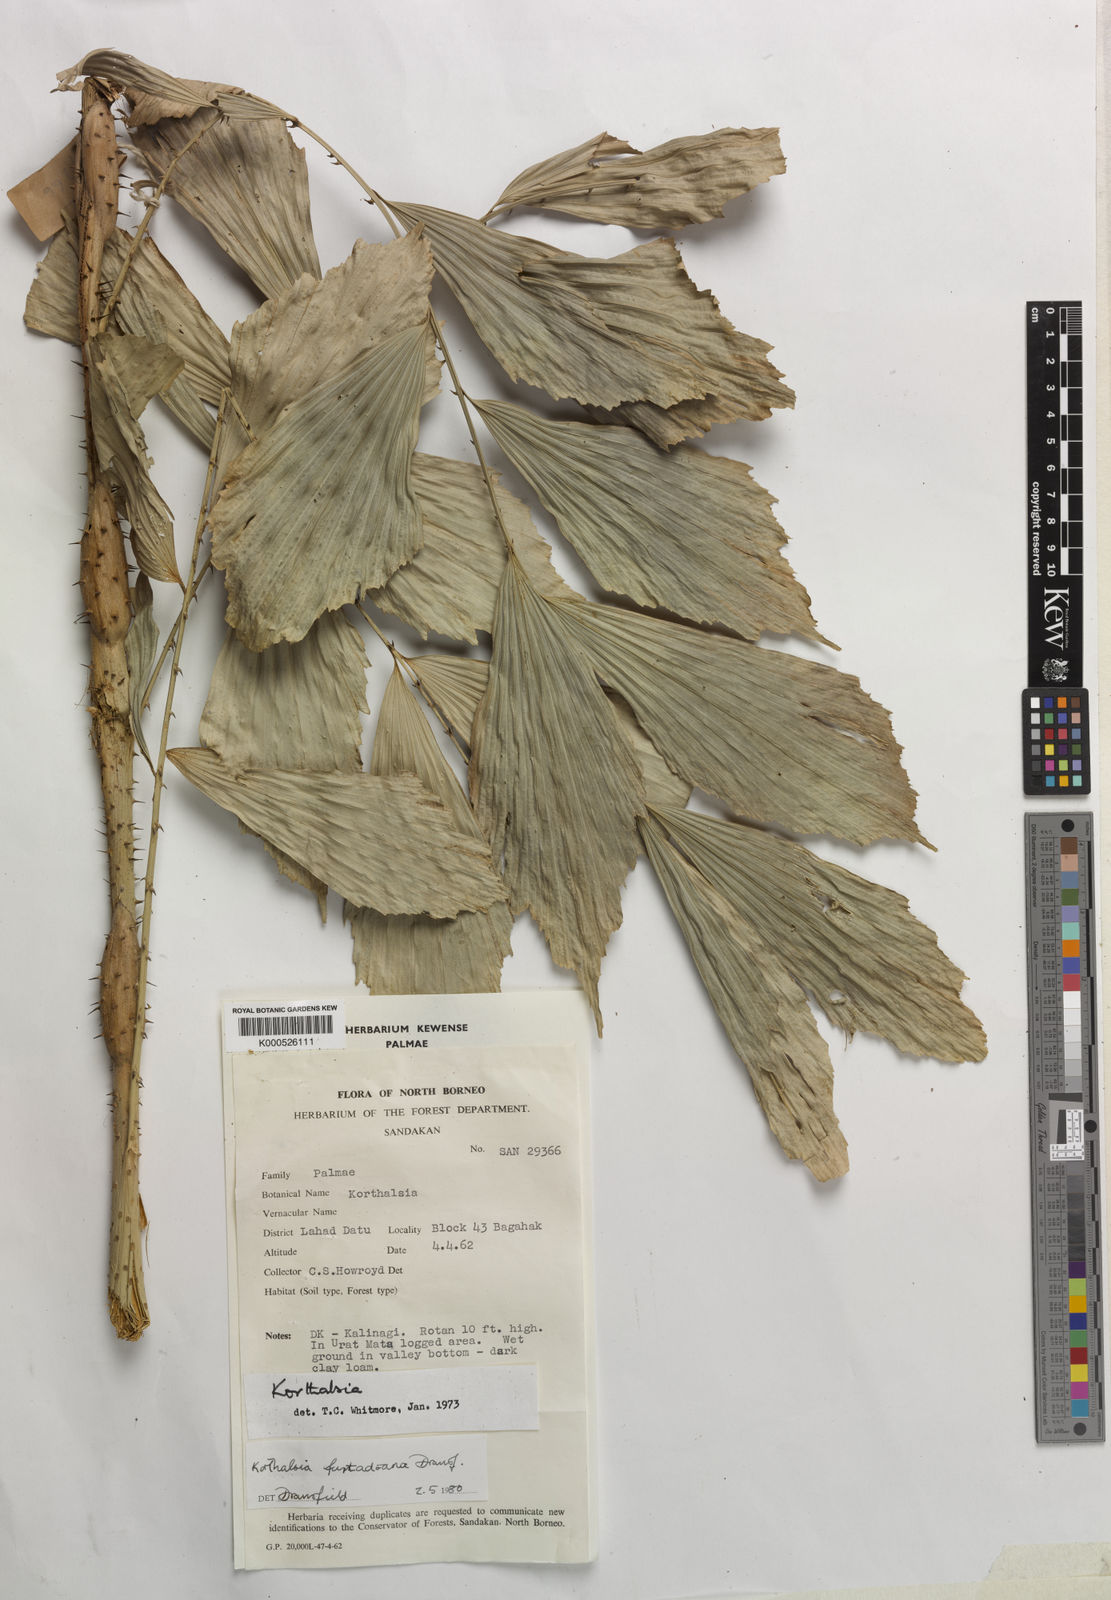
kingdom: Plantae
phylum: Tracheophyta
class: Liliopsida
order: Arecales
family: Arecaceae
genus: Korthalsia
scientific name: Korthalsia furtadoana
